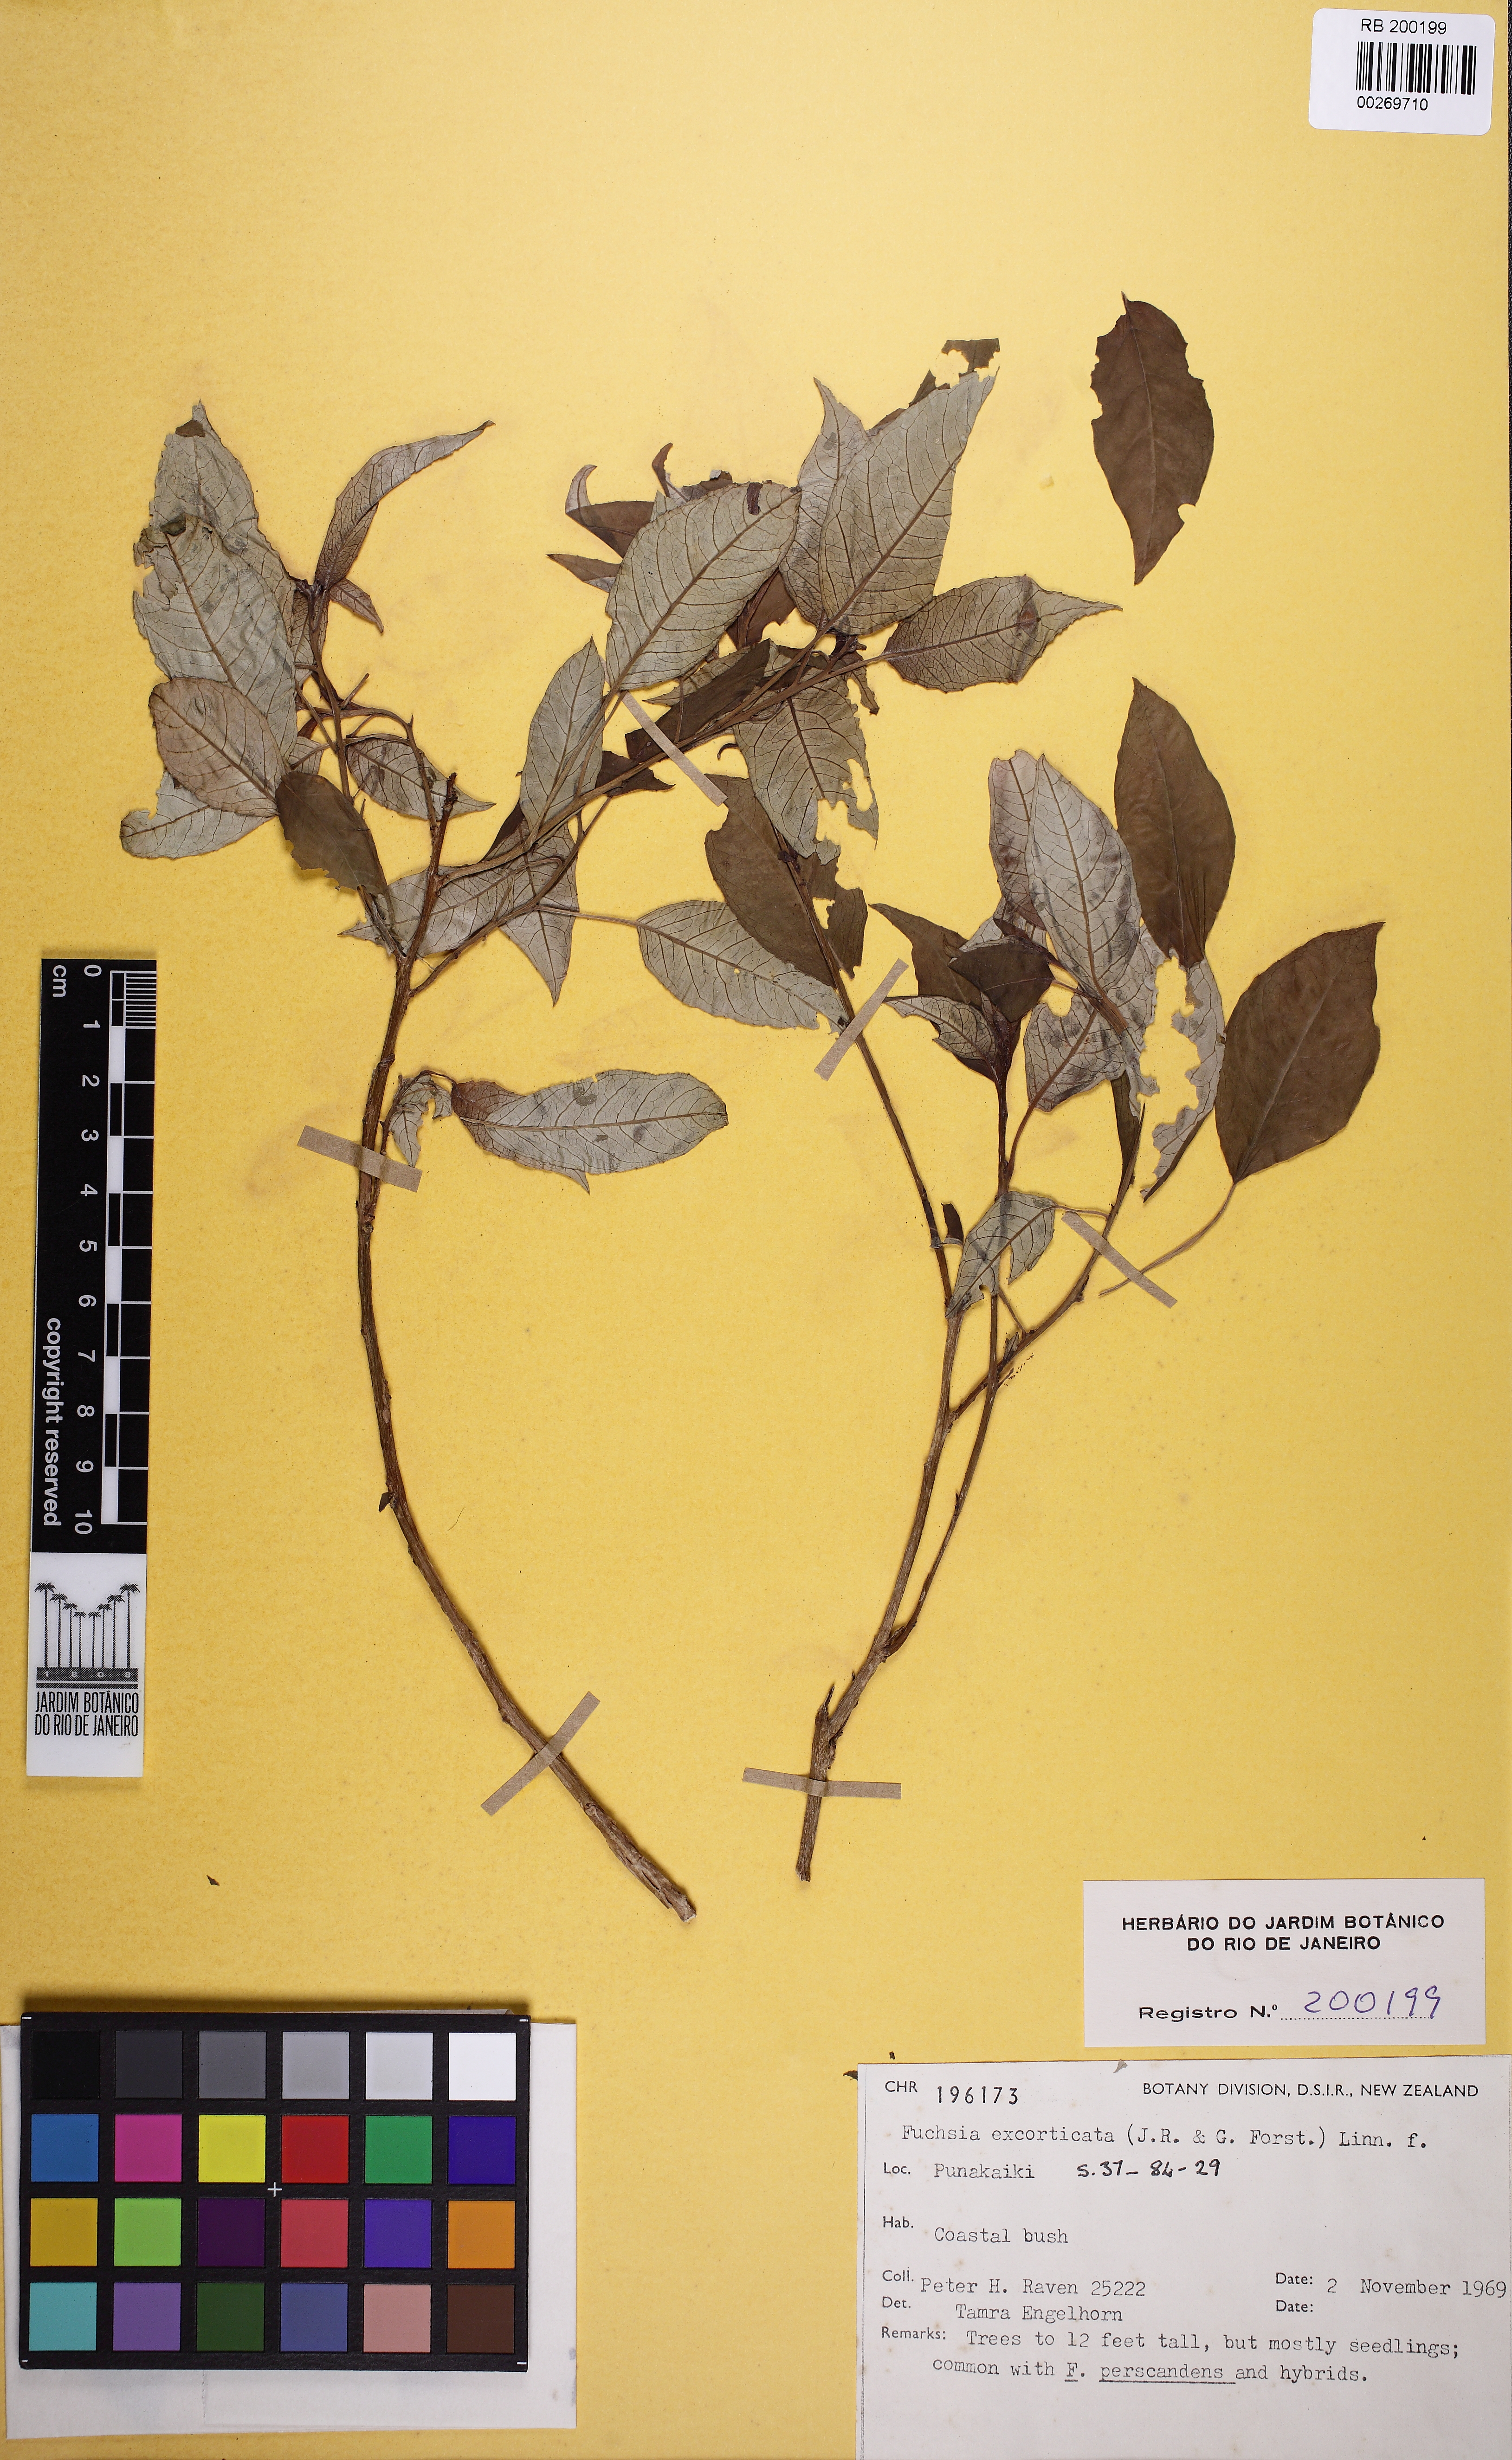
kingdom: Plantae
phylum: Tracheophyta
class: Magnoliopsida
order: Myrtales
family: Onagraceae
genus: Fuchsia
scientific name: Fuchsia excorticata
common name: Tree fuchsia
